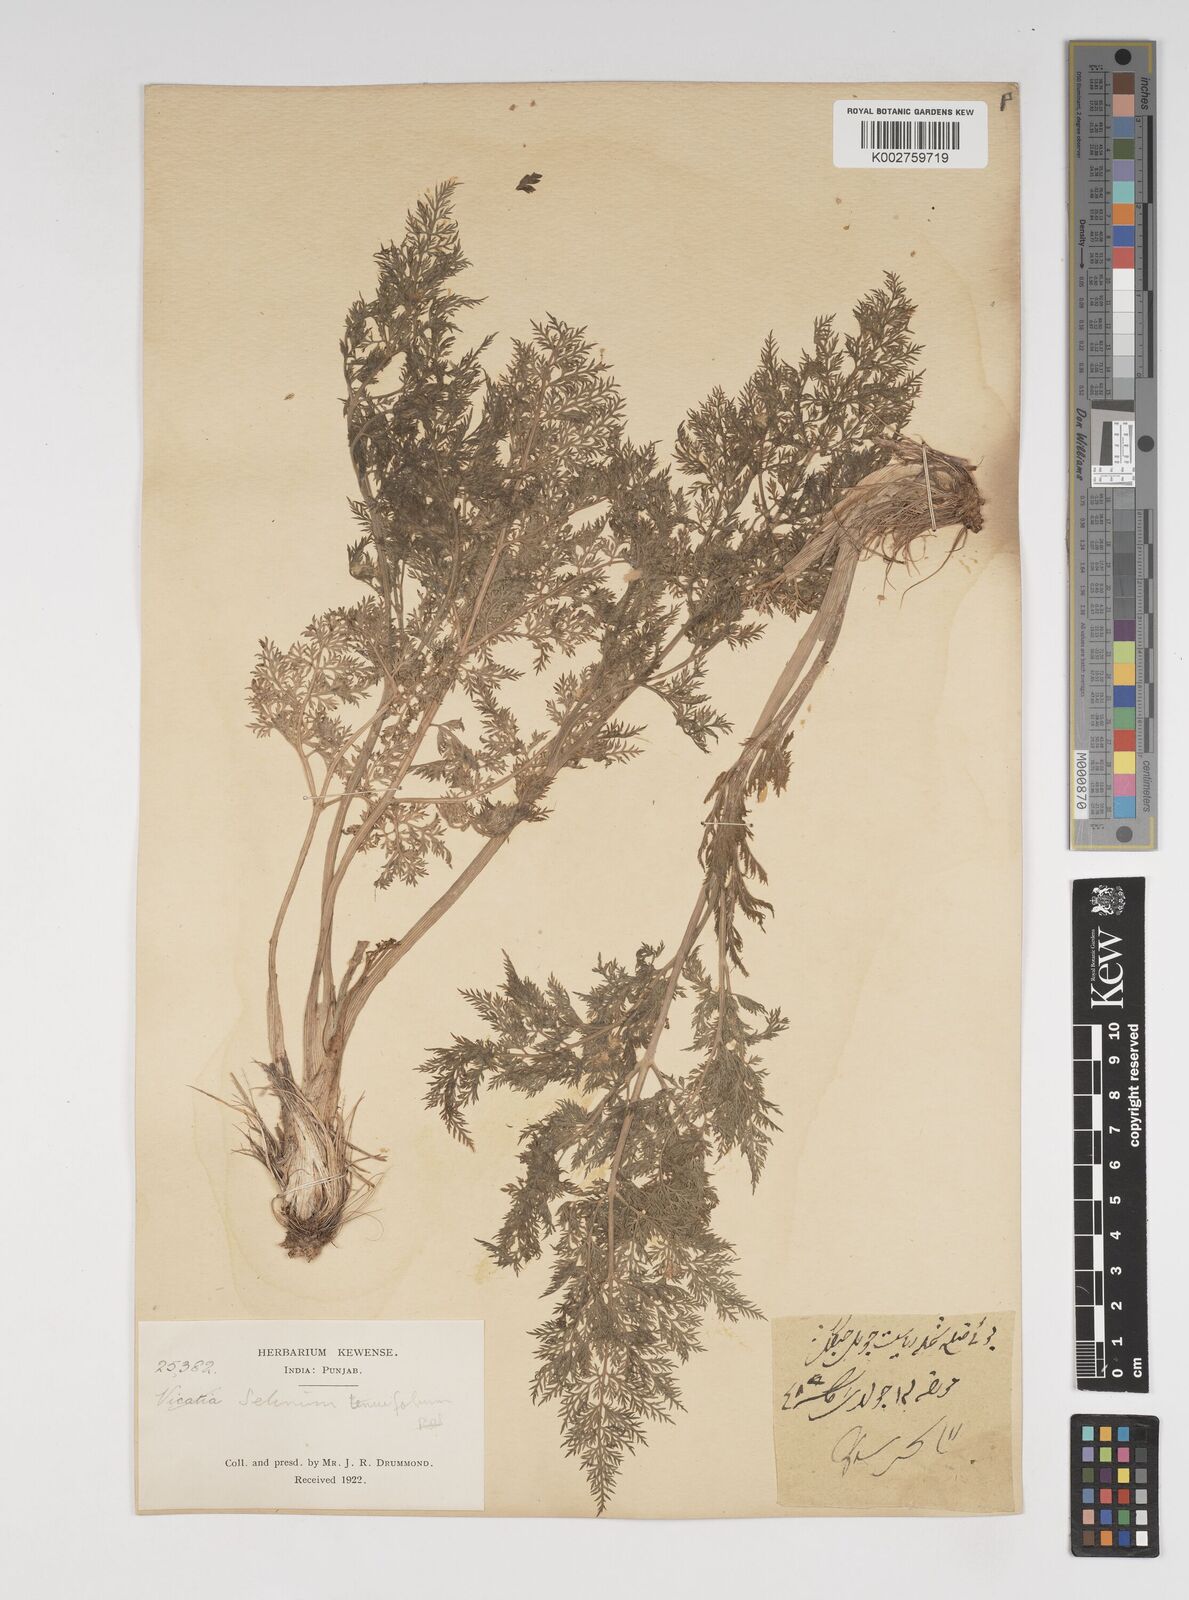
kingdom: Plantae
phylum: Tracheophyta
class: Magnoliopsida
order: Apiales
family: Apiaceae
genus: Selinum
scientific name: Selinum
